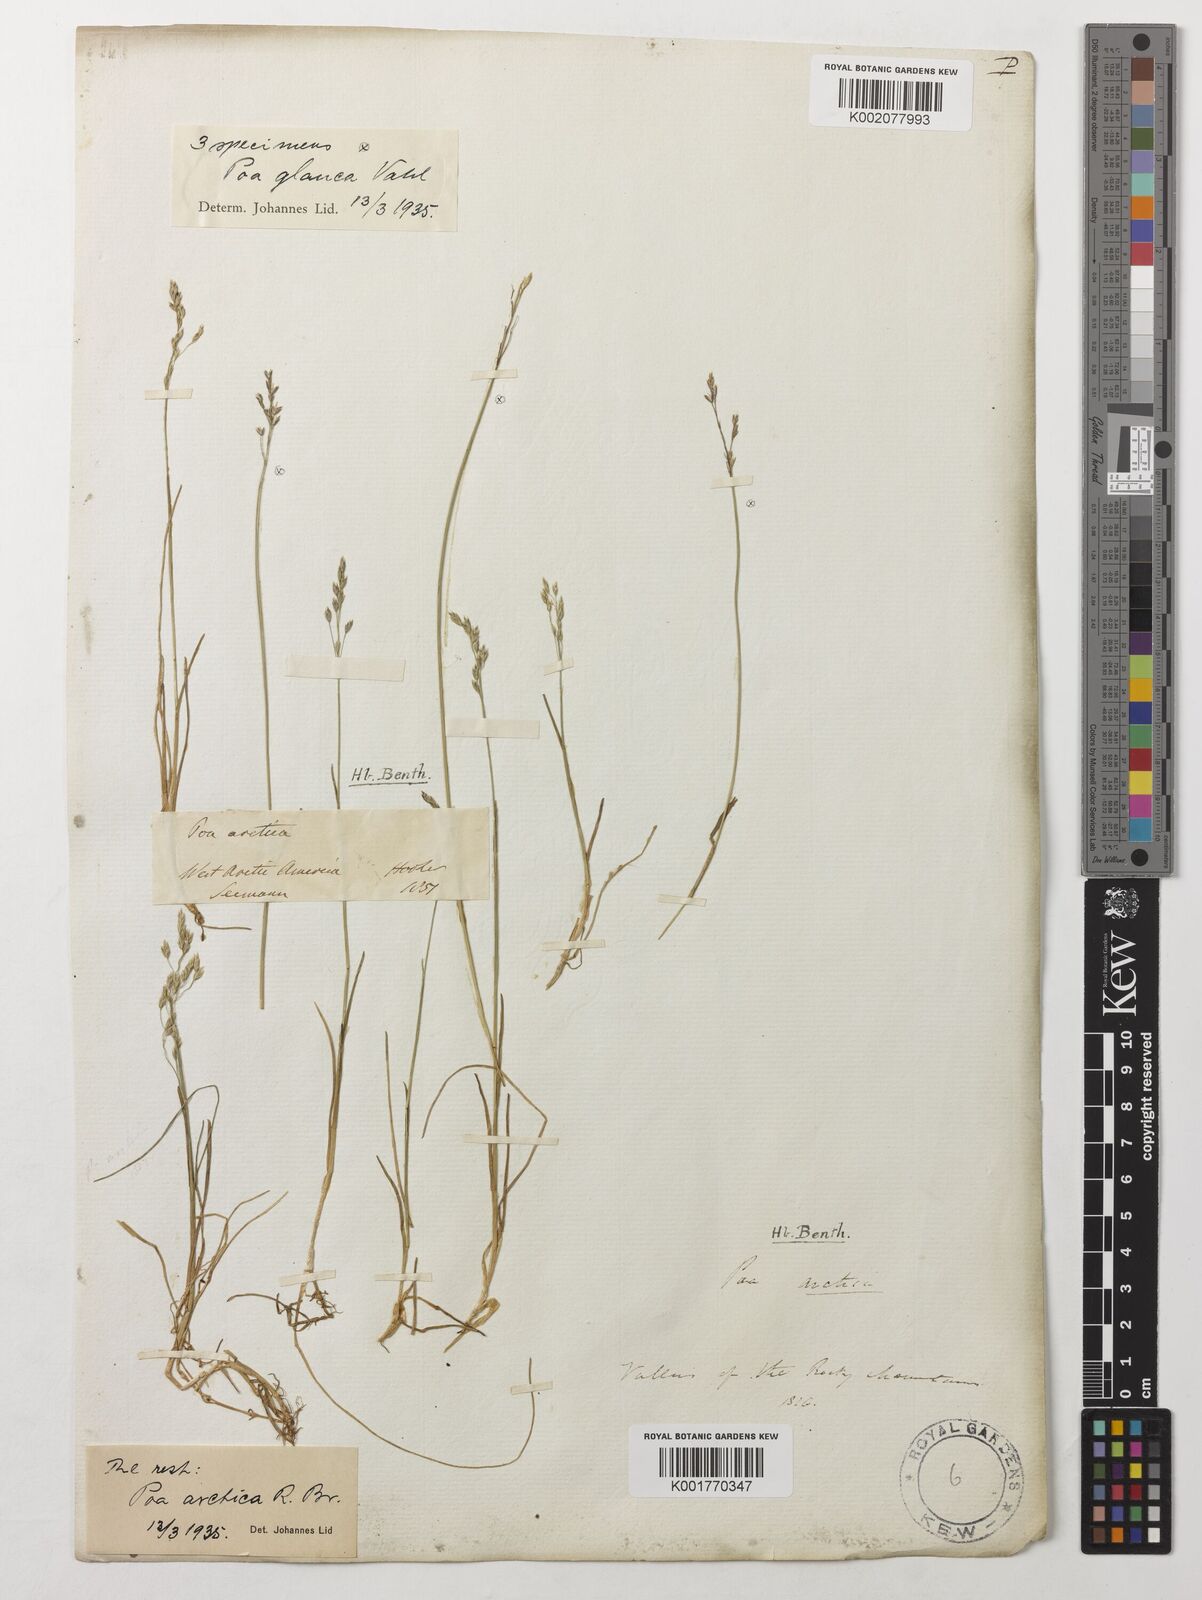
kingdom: Plantae
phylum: Tracheophyta
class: Liliopsida
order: Poales
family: Poaceae
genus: Poa
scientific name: Poa arctica
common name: Arctic bluegrass
